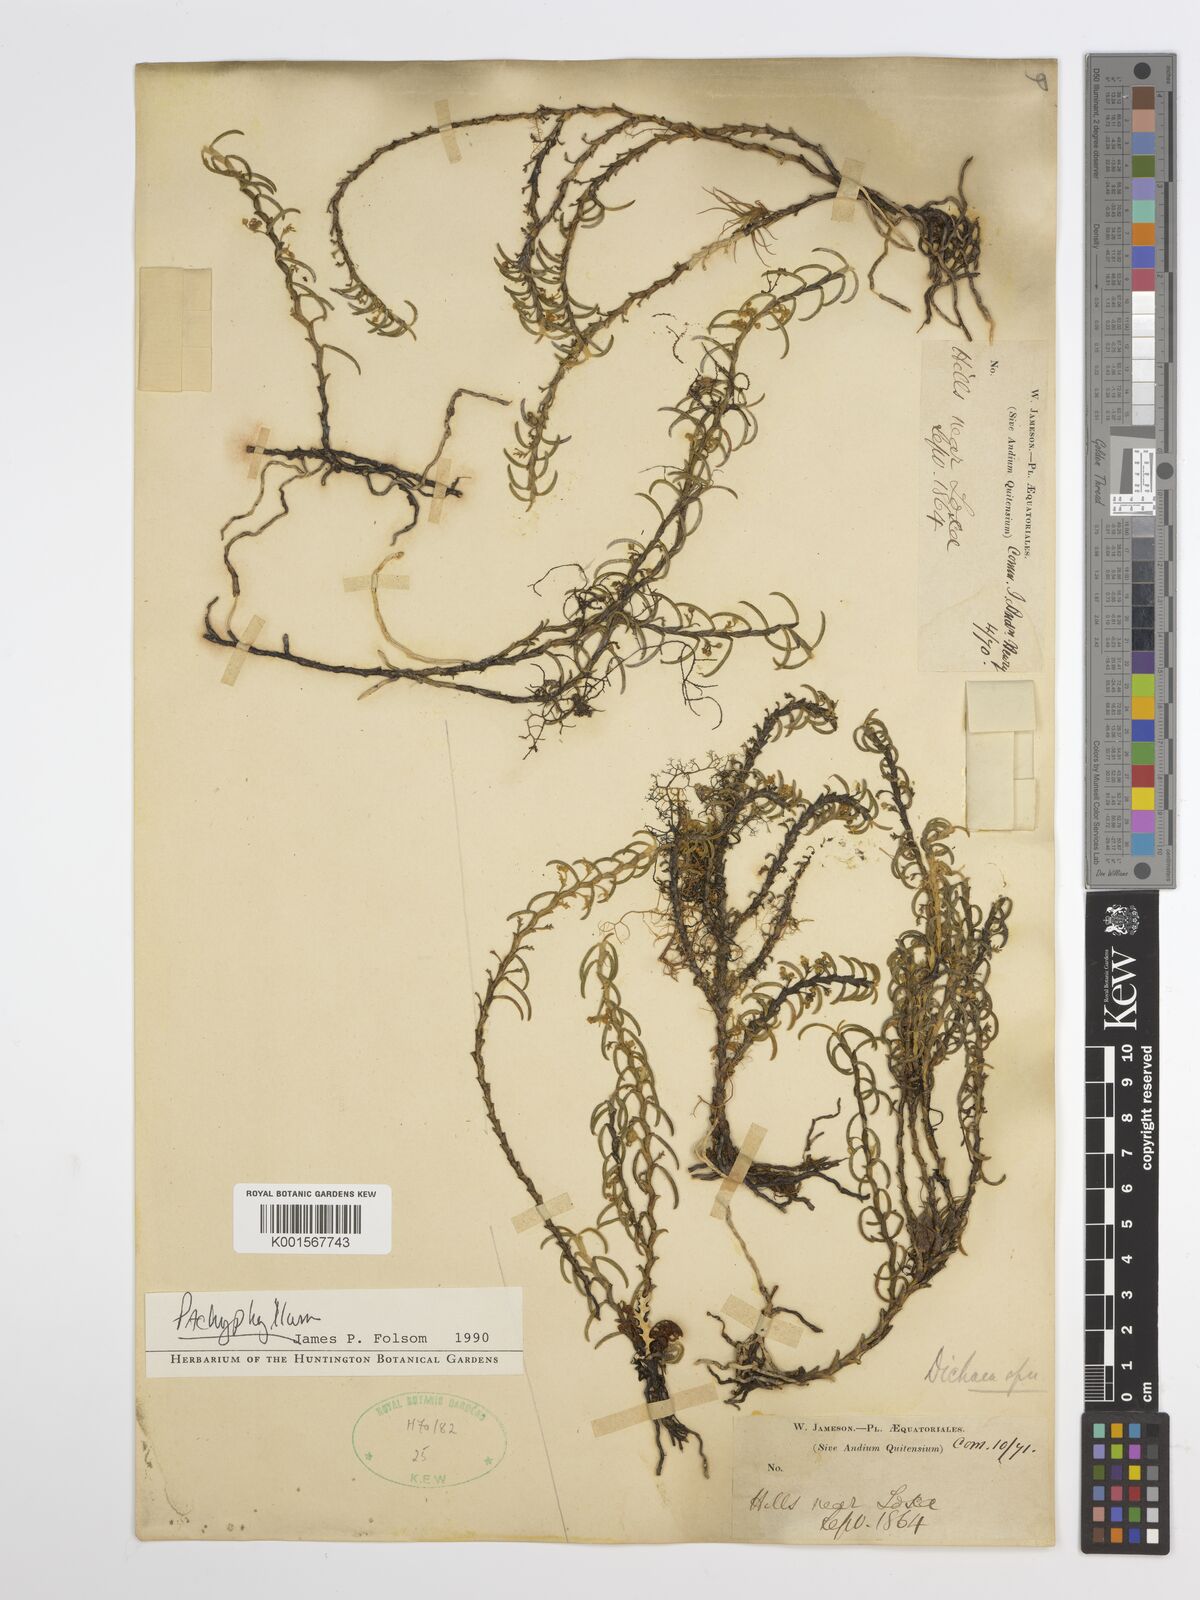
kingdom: Plantae
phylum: Tracheophyta
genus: Pachyphyllum
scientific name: Pachyphyllum
